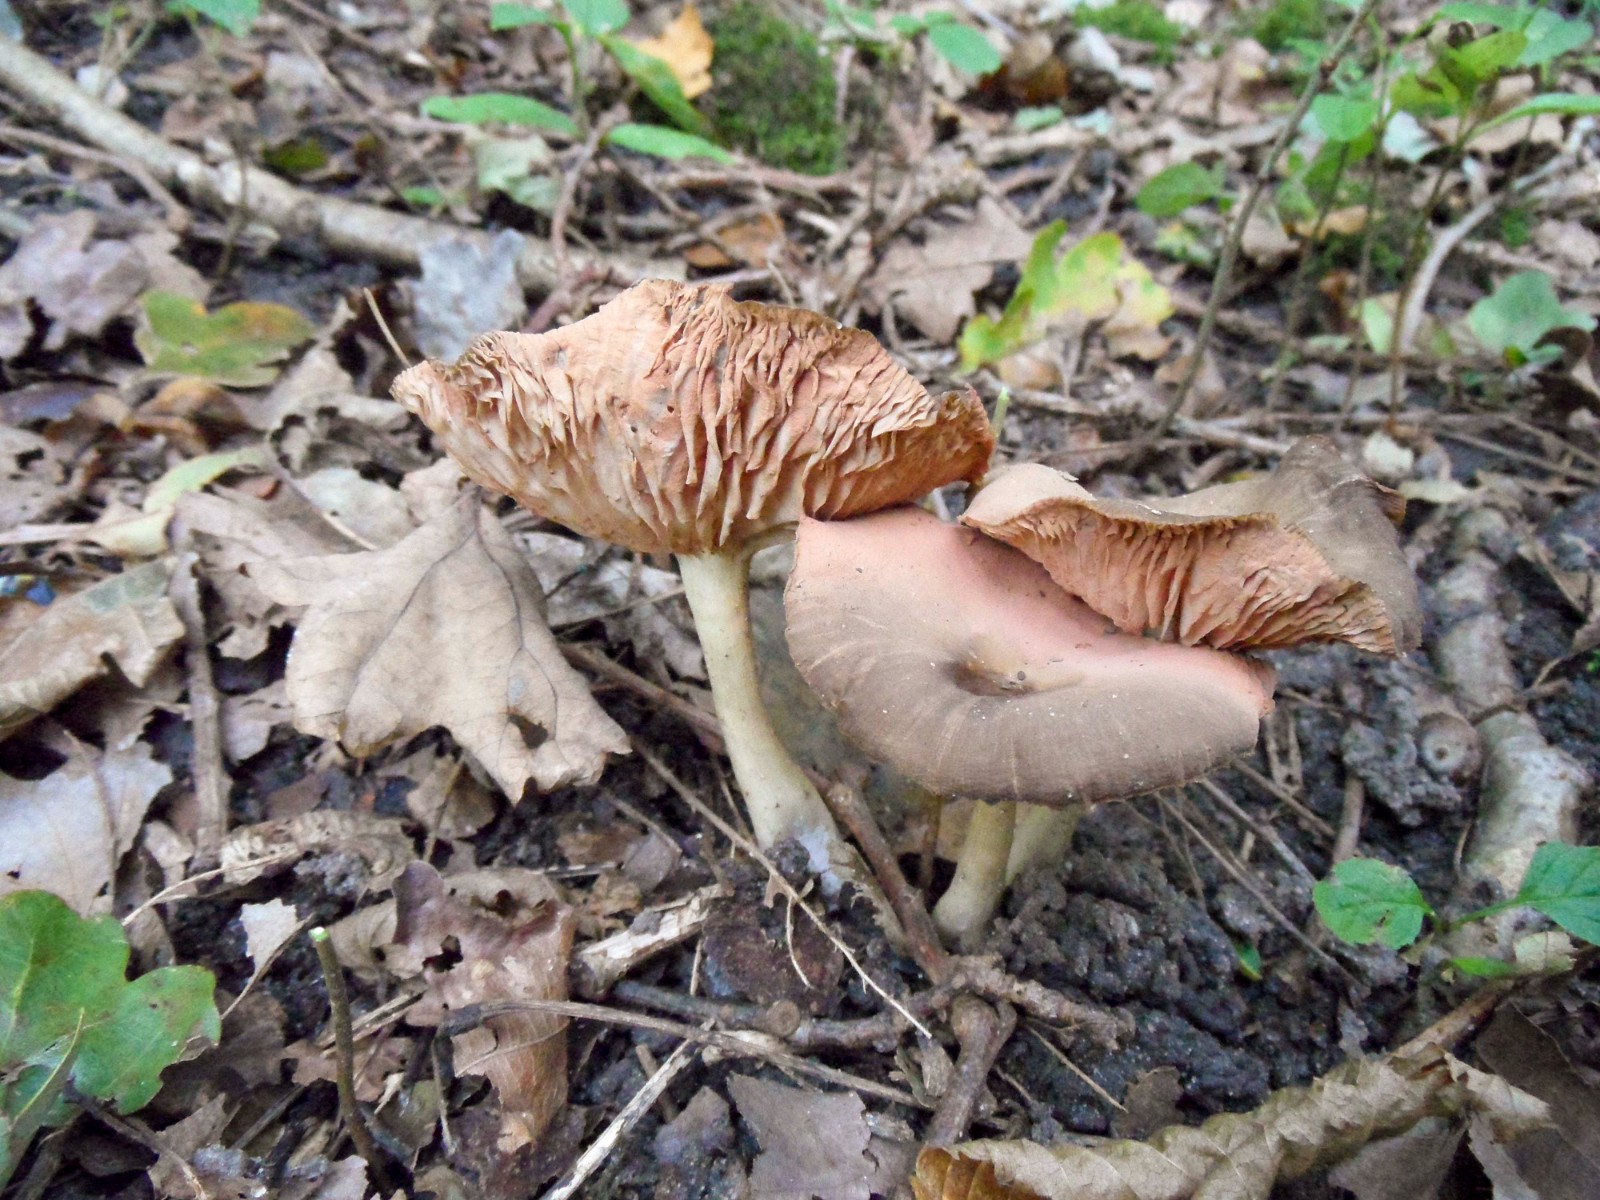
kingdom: Fungi
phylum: Basidiomycota
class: Agaricomycetes
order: Agaricales
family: Entolomataceae
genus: Entoloma
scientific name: Entoloma
